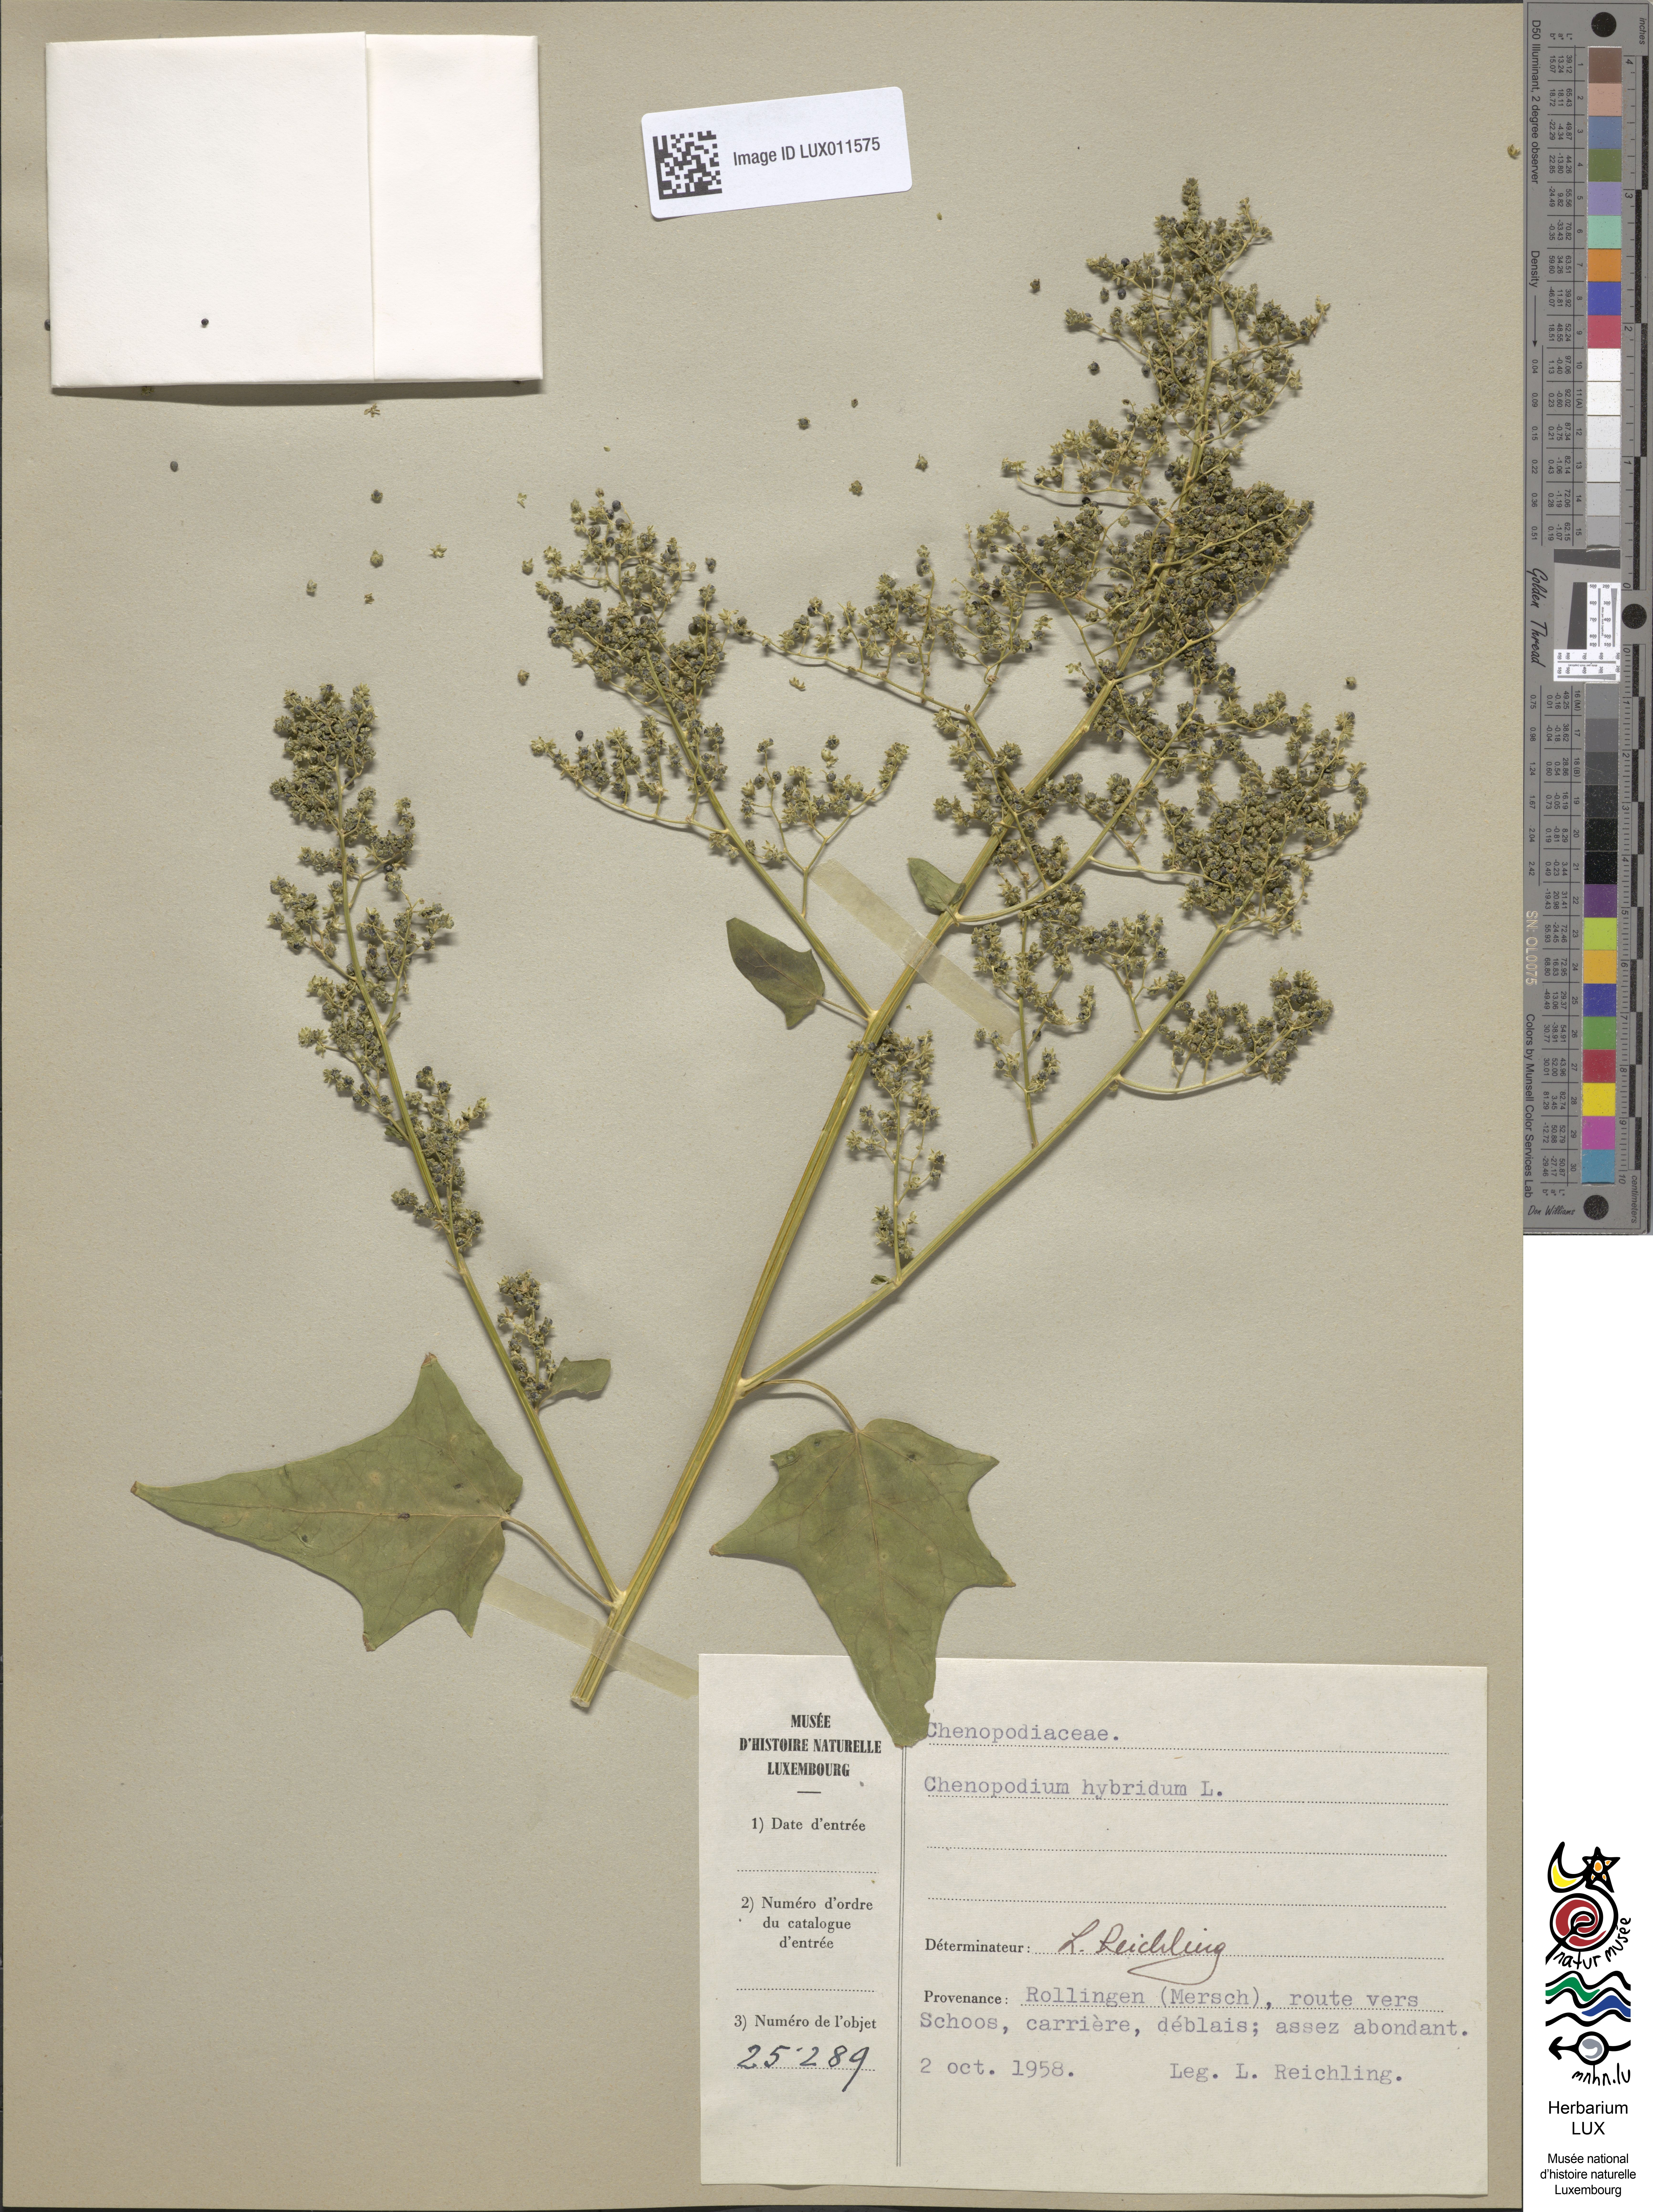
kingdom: Plantae
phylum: Tracheophyta
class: Magnoliopsida
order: Caryophyllales
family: Amaranthaceae
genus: Chenopodiastrum
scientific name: Chenopodiastrum hybridum
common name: Mapleleaf goosefoot
